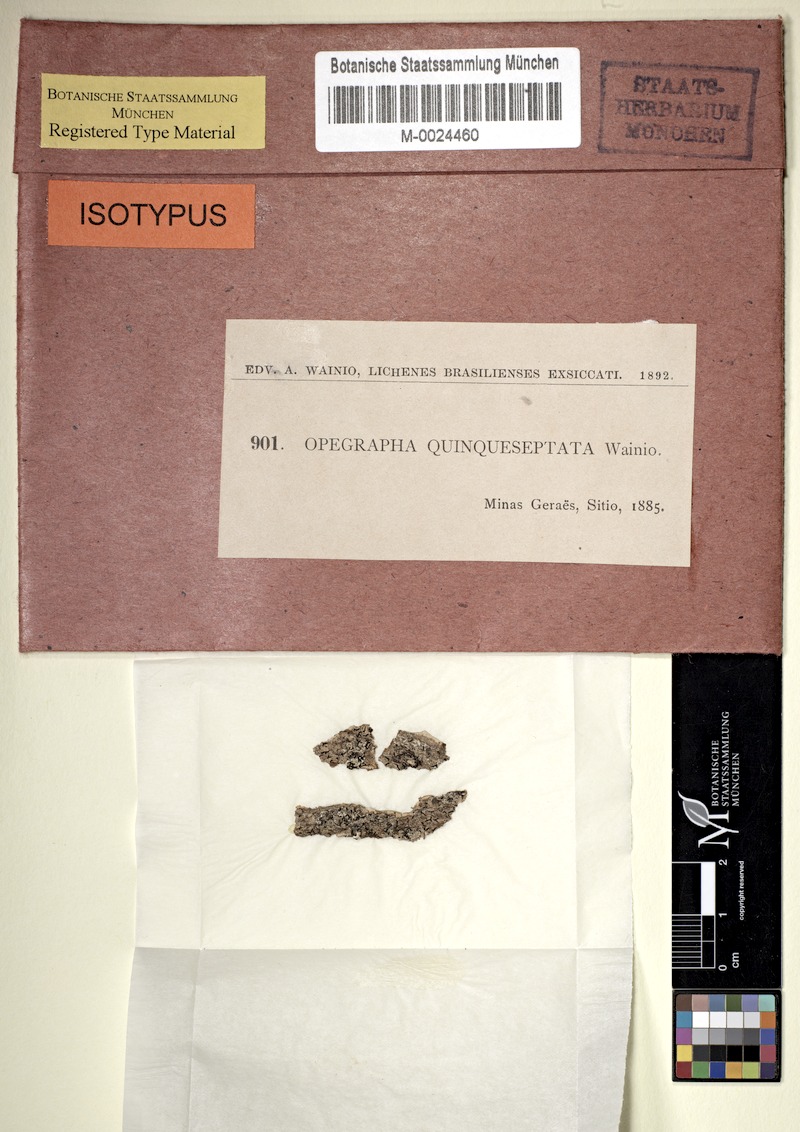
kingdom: Fungi
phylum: Ascomycota
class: Arthoniomycetes
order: Arthoniales
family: Opegraphaceae
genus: Opegrapha
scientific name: Opegrapha
